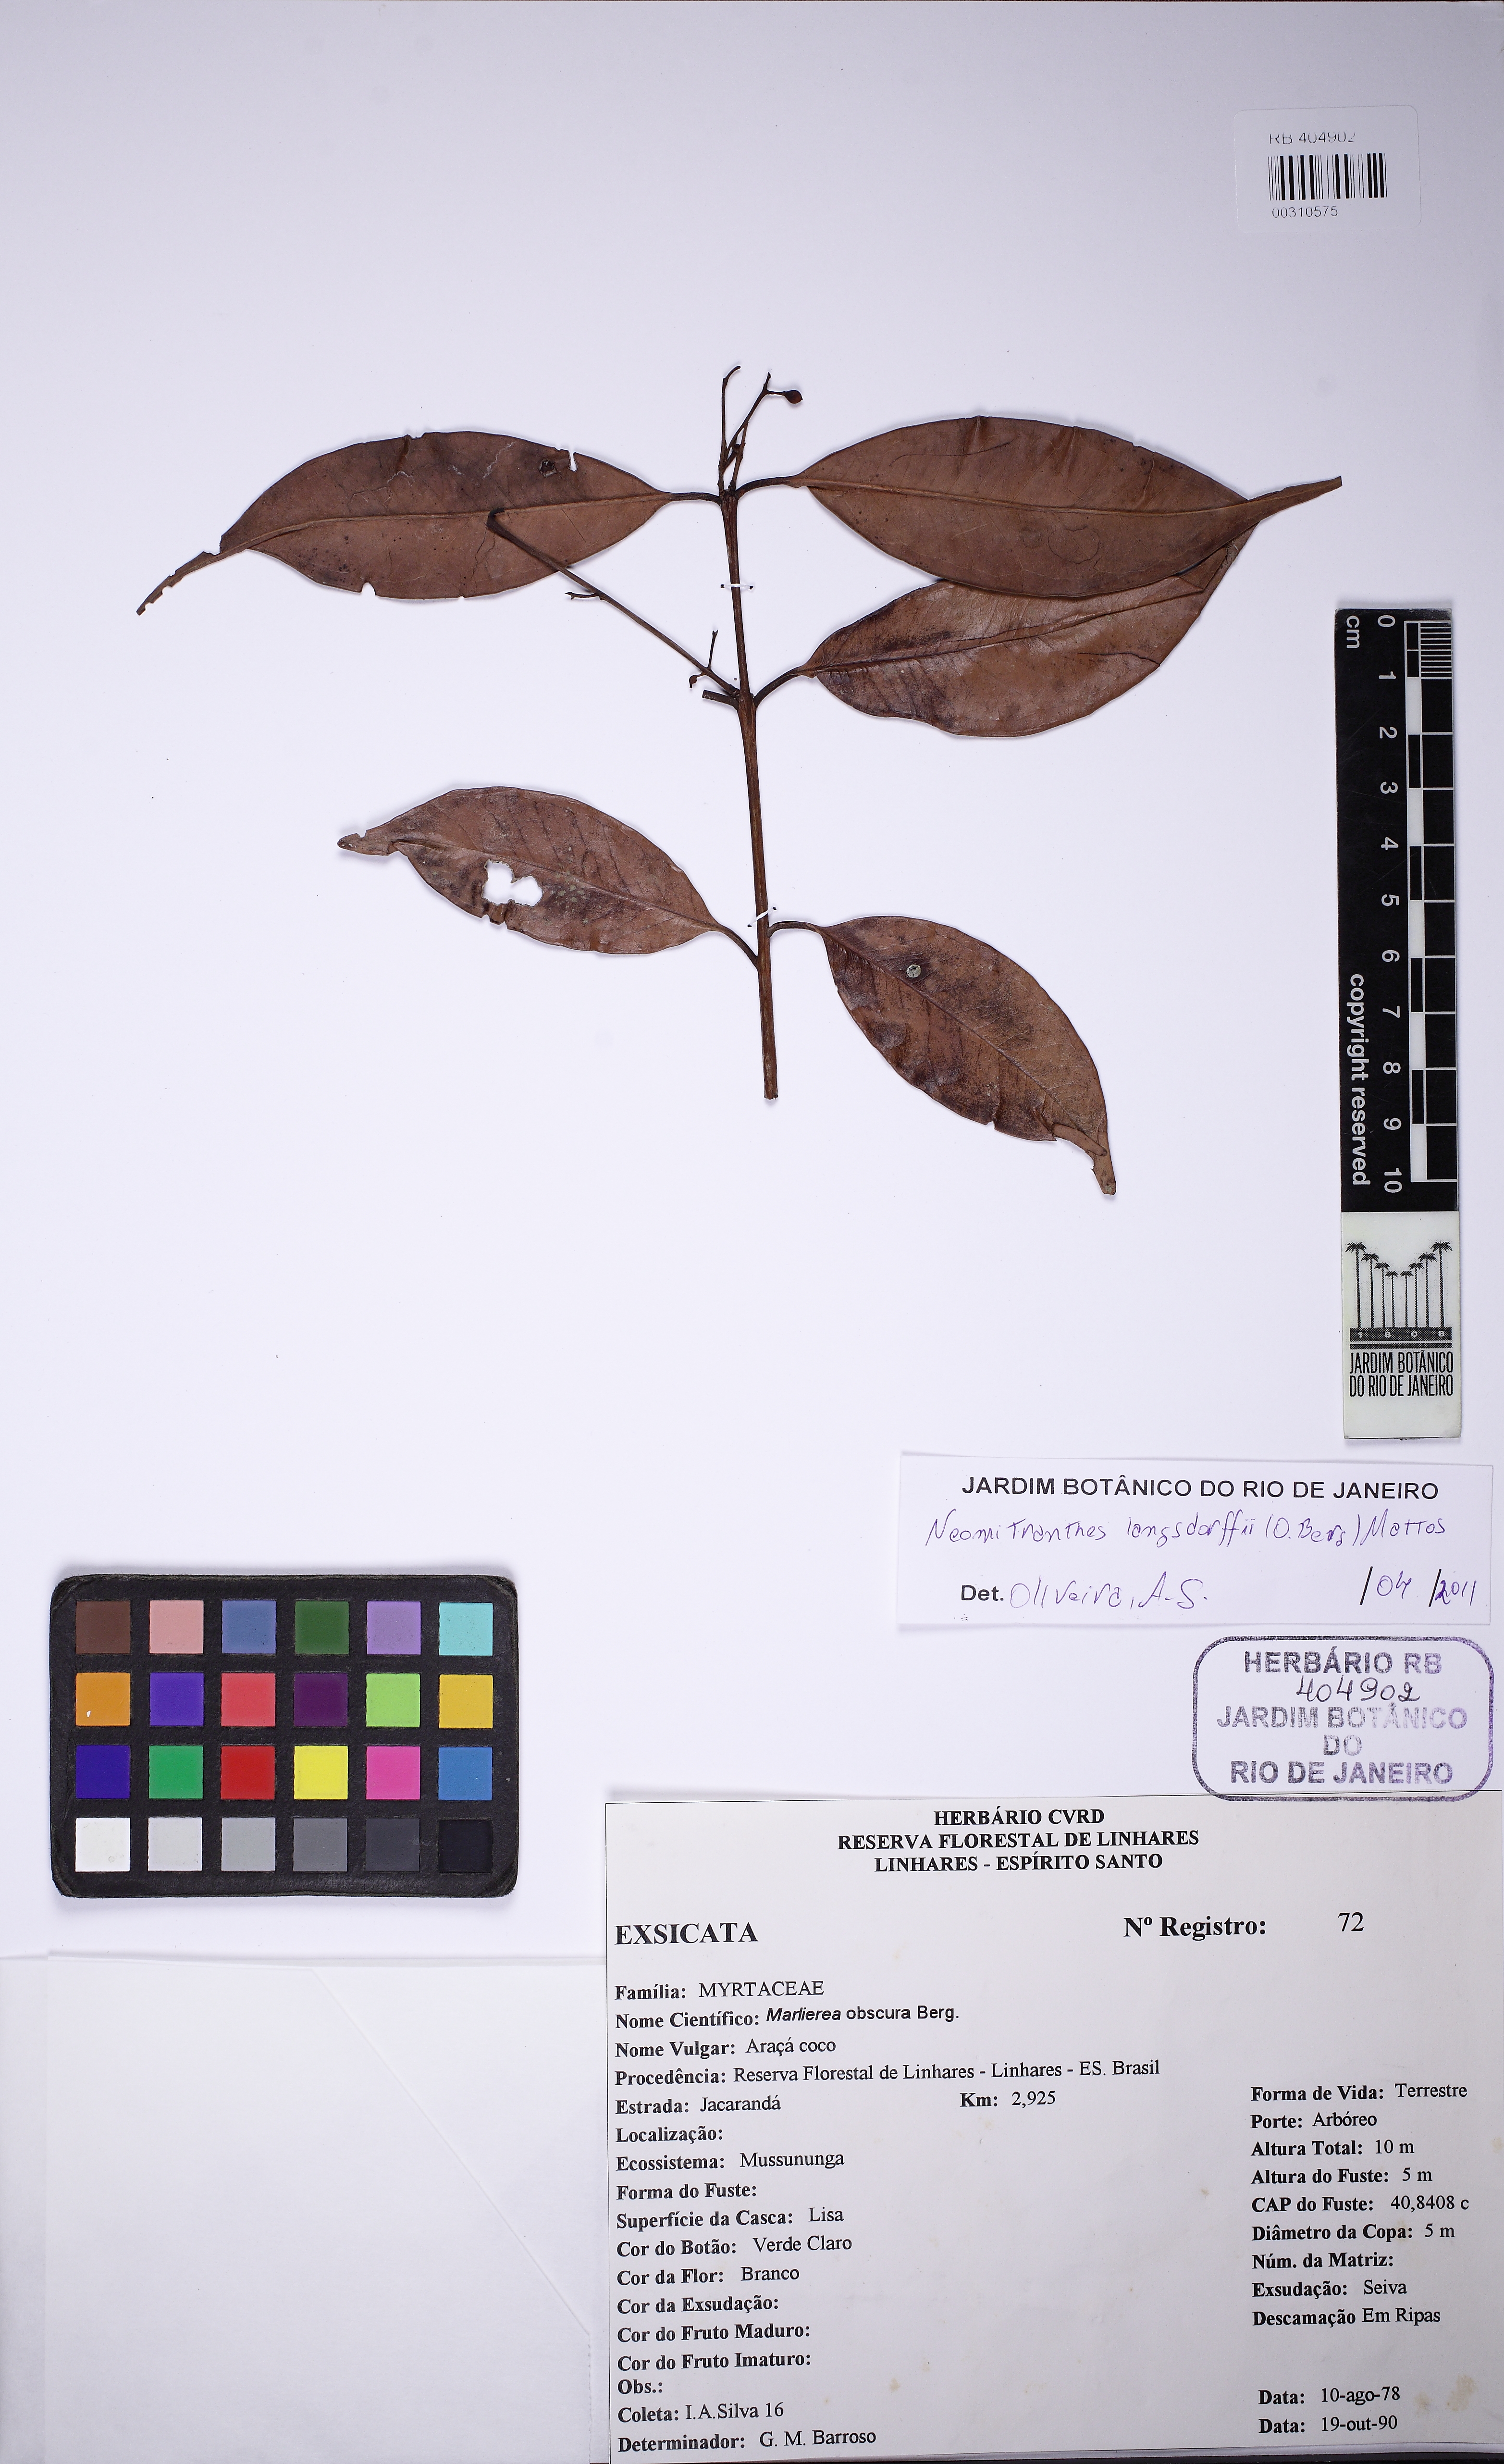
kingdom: Plantae
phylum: Tracheophyta
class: Magnoliopsida
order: Myrtales
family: Myrtaceae
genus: Neomitranthes
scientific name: Neomitranthes langsdorffii
